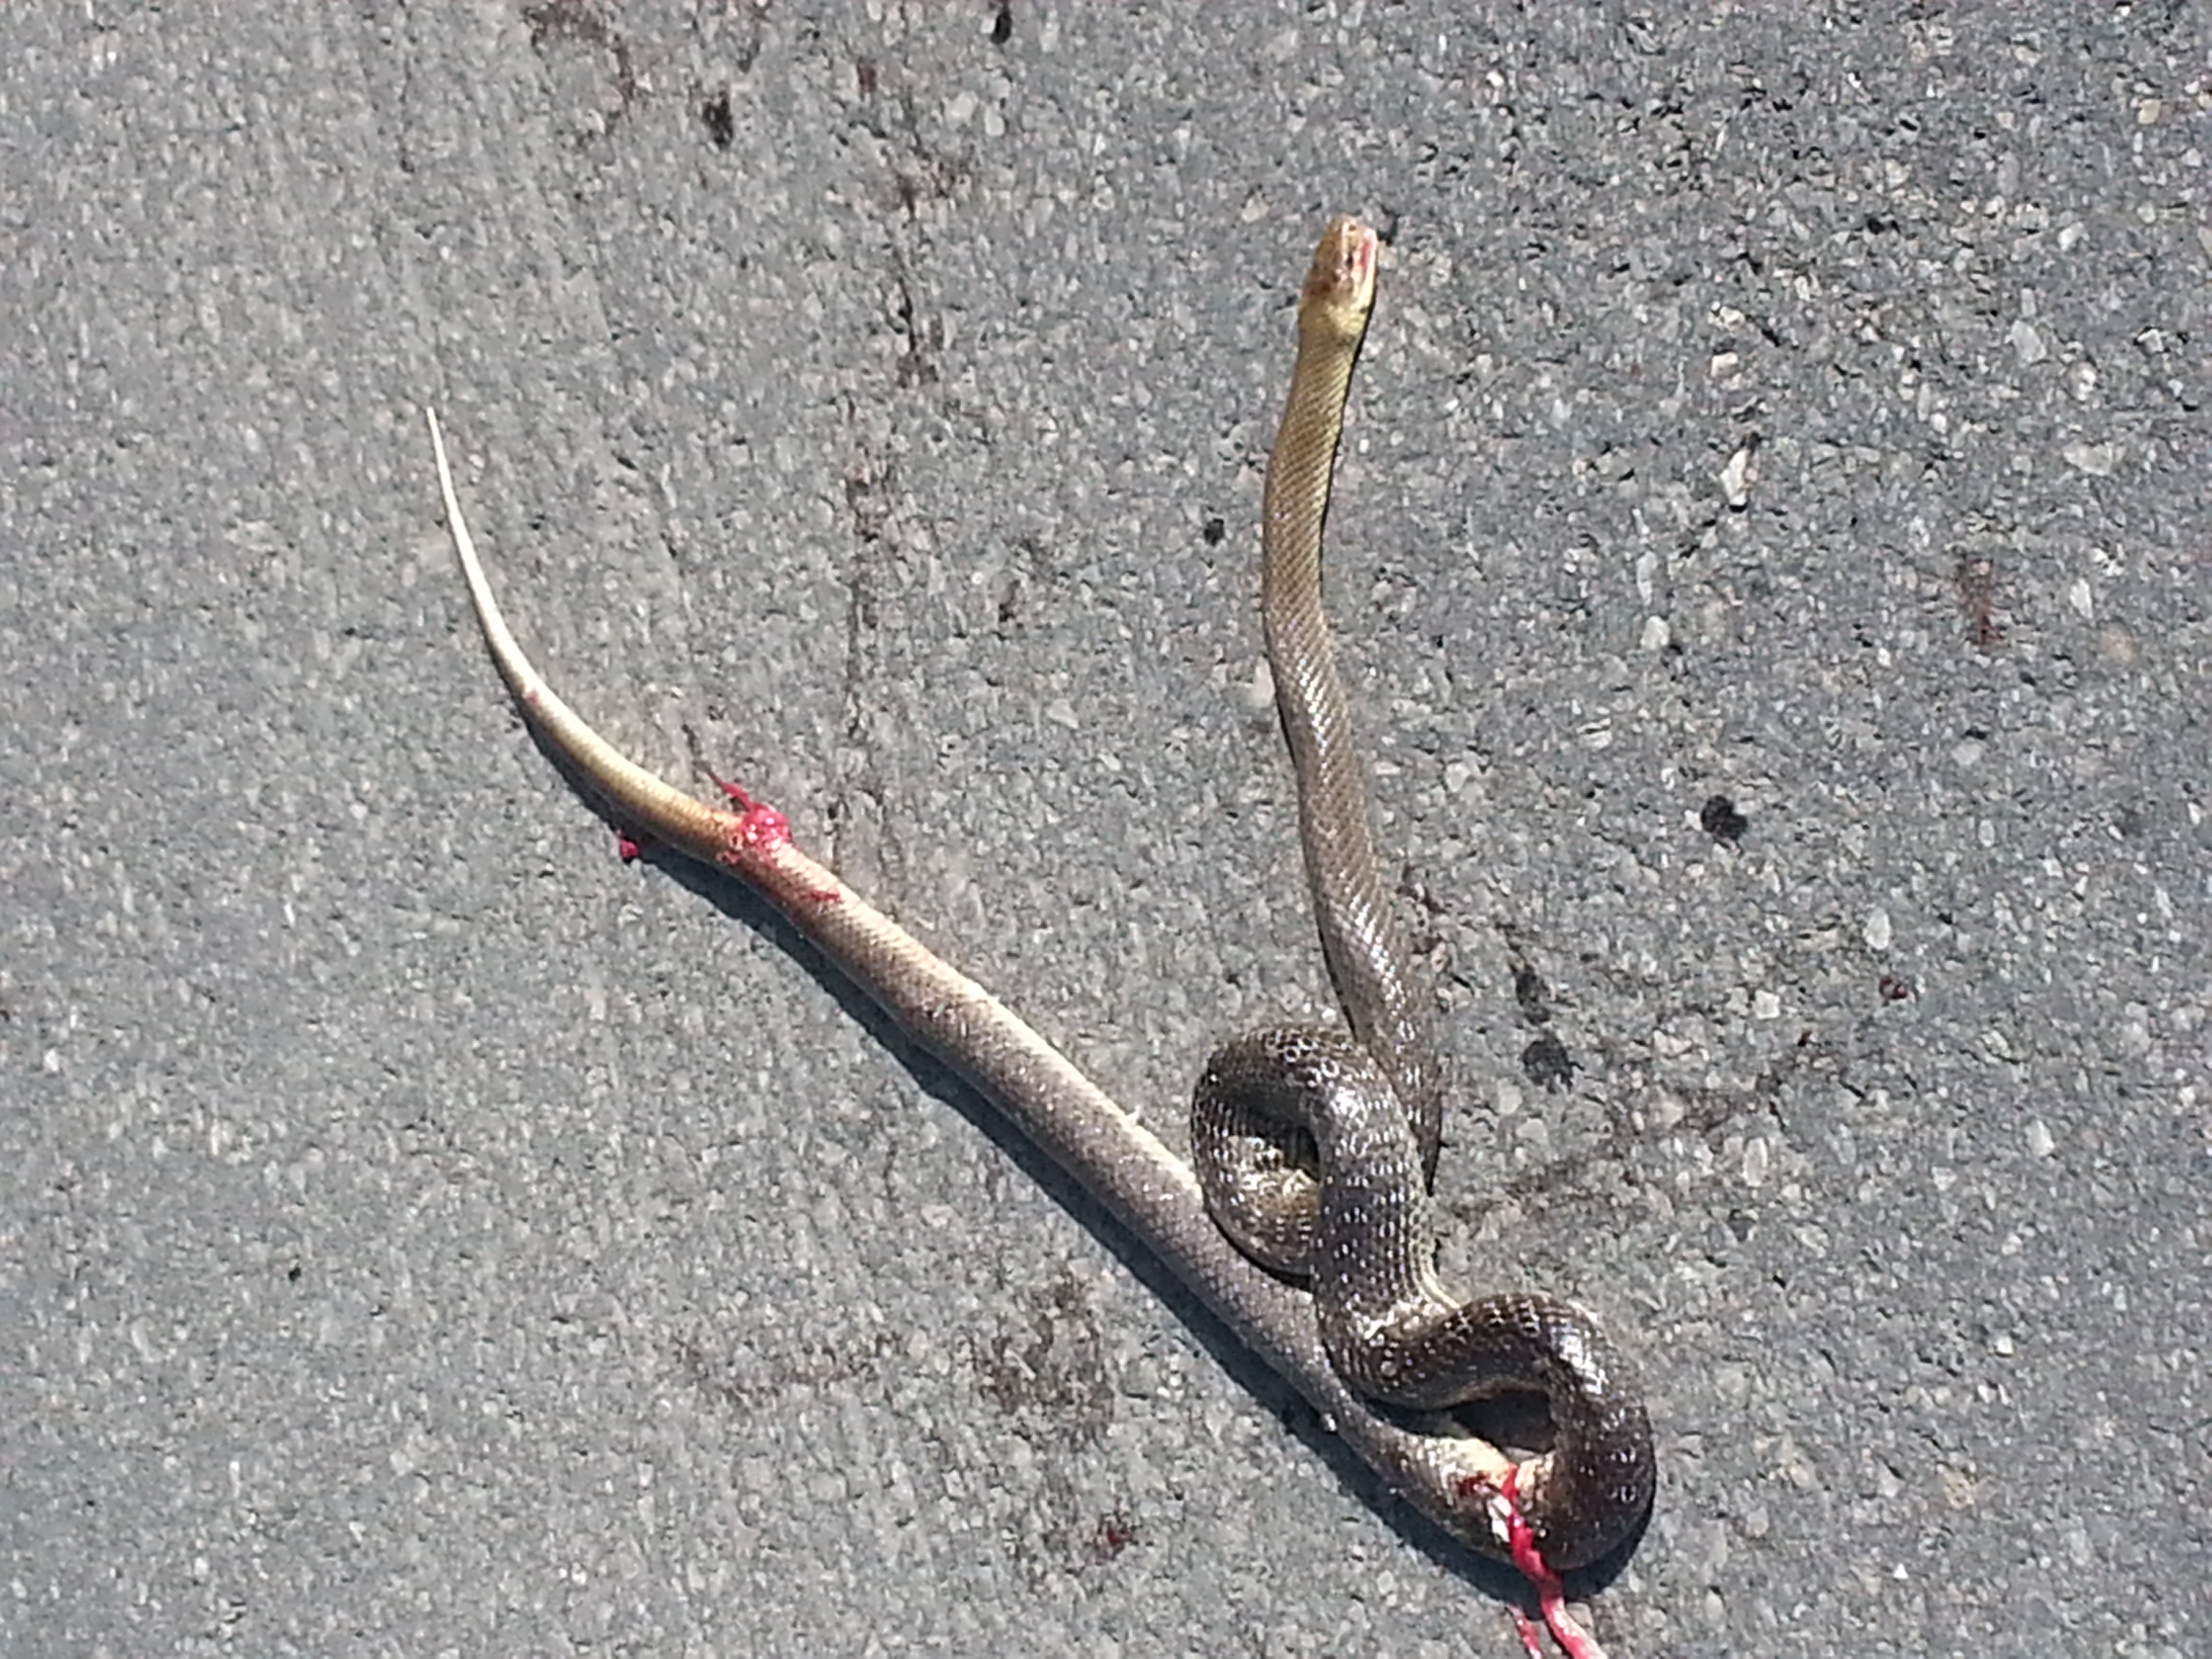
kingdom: Animalia
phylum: Chordata
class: Squamata
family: Colubridae
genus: Zamenis
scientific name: Zamenis longissimus
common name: Aesculapean snake
